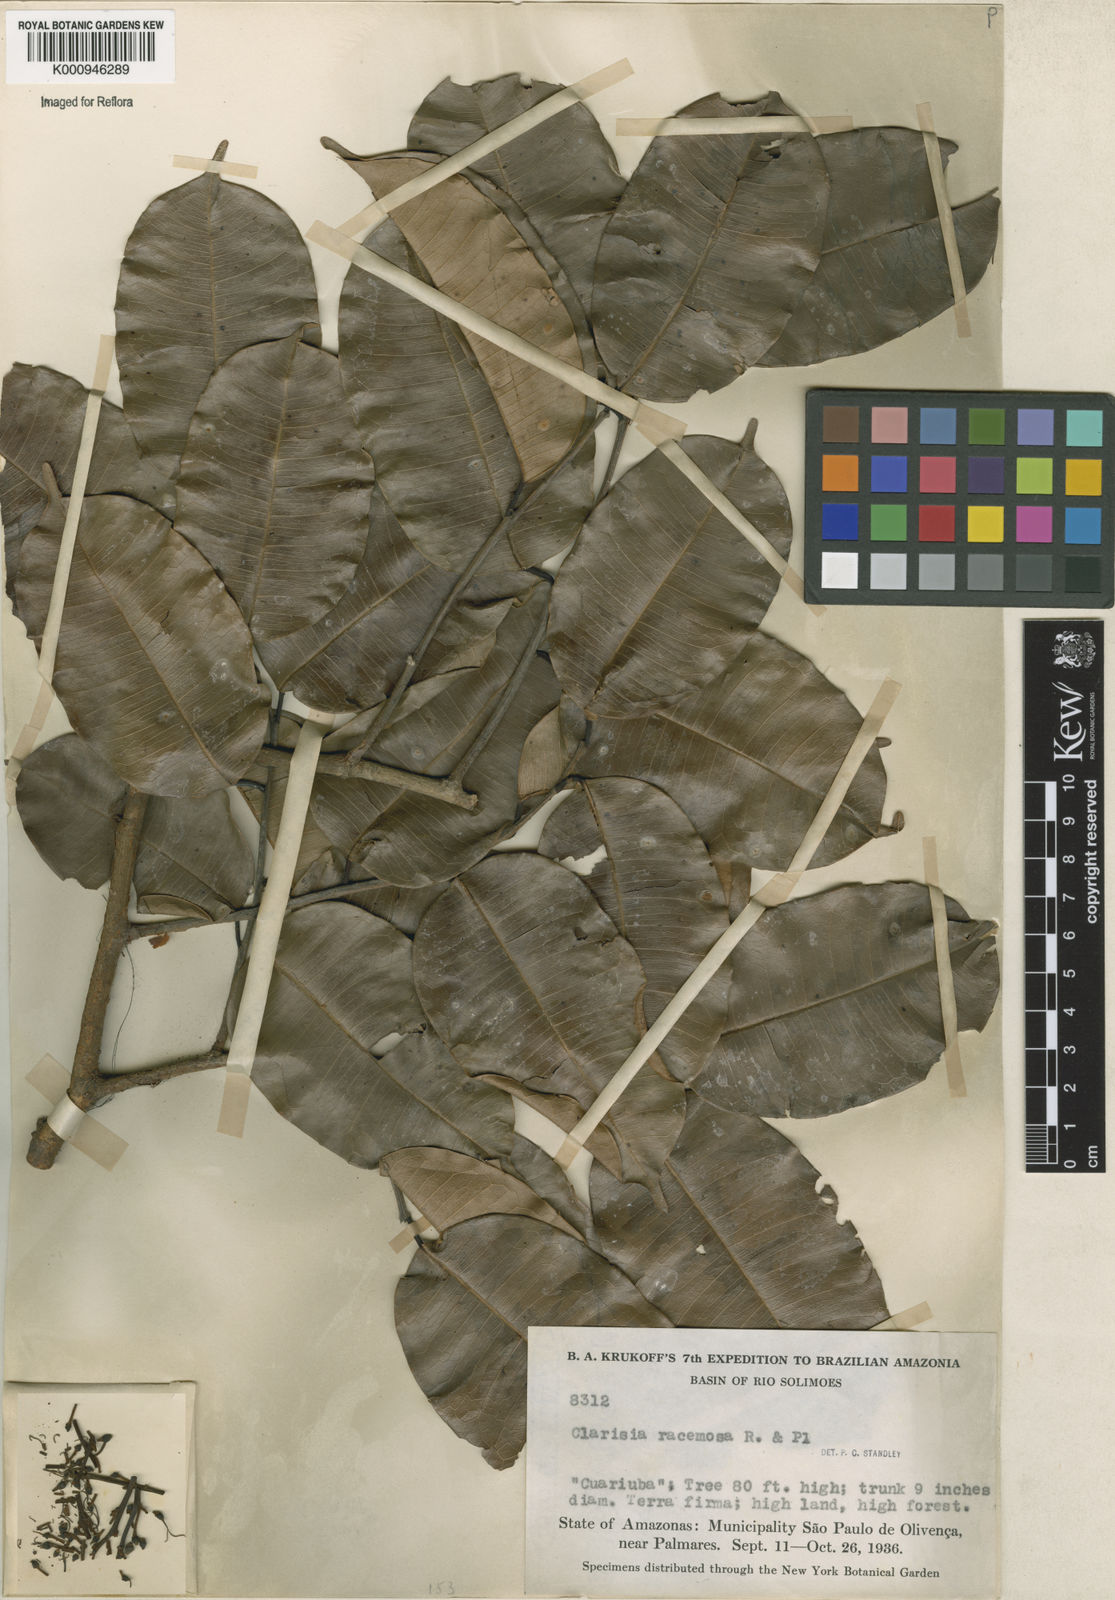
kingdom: Plantae
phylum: Tracheophyta
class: Magnoliopsida
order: Rosales
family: Moraceae
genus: Clarisia
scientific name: Clarisia racemosa
